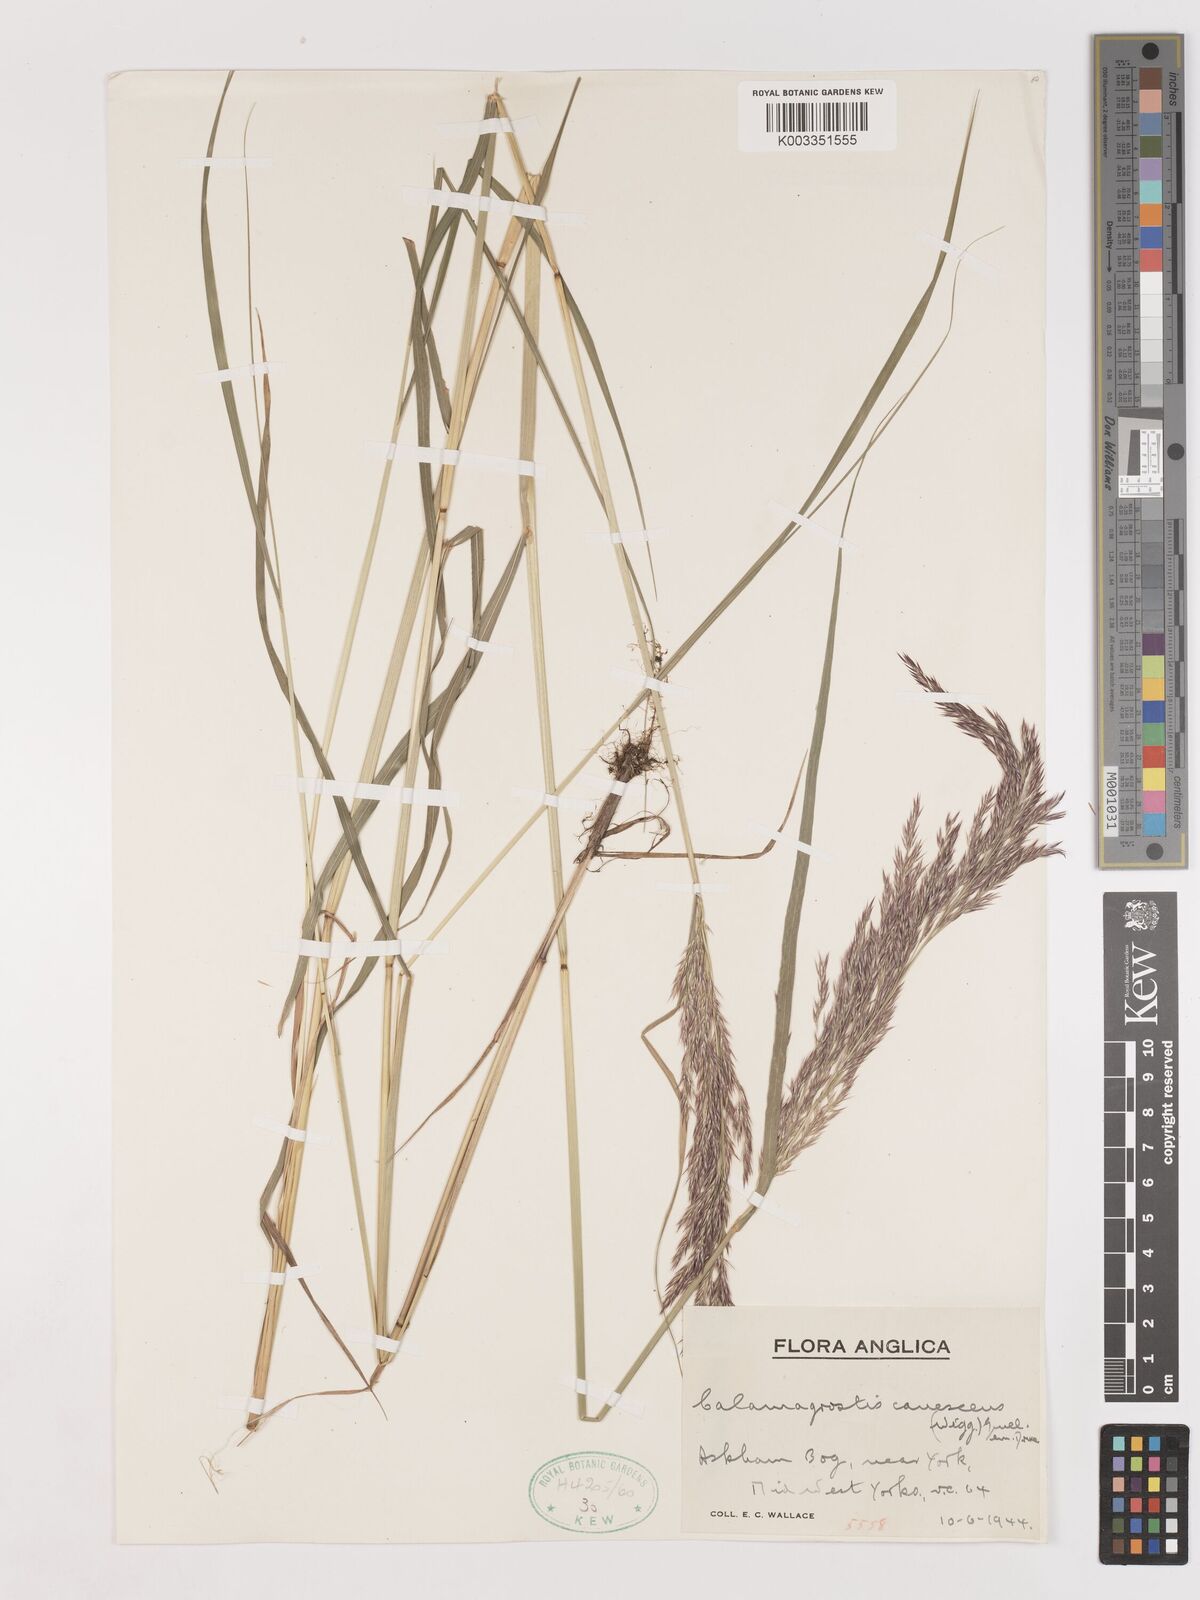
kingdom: Plantae
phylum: Tracheophyta
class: Liliopsida
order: Poales
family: Poaceae
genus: Calamagrostis
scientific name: Calamagrostis canescens
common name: Purple small-reed
